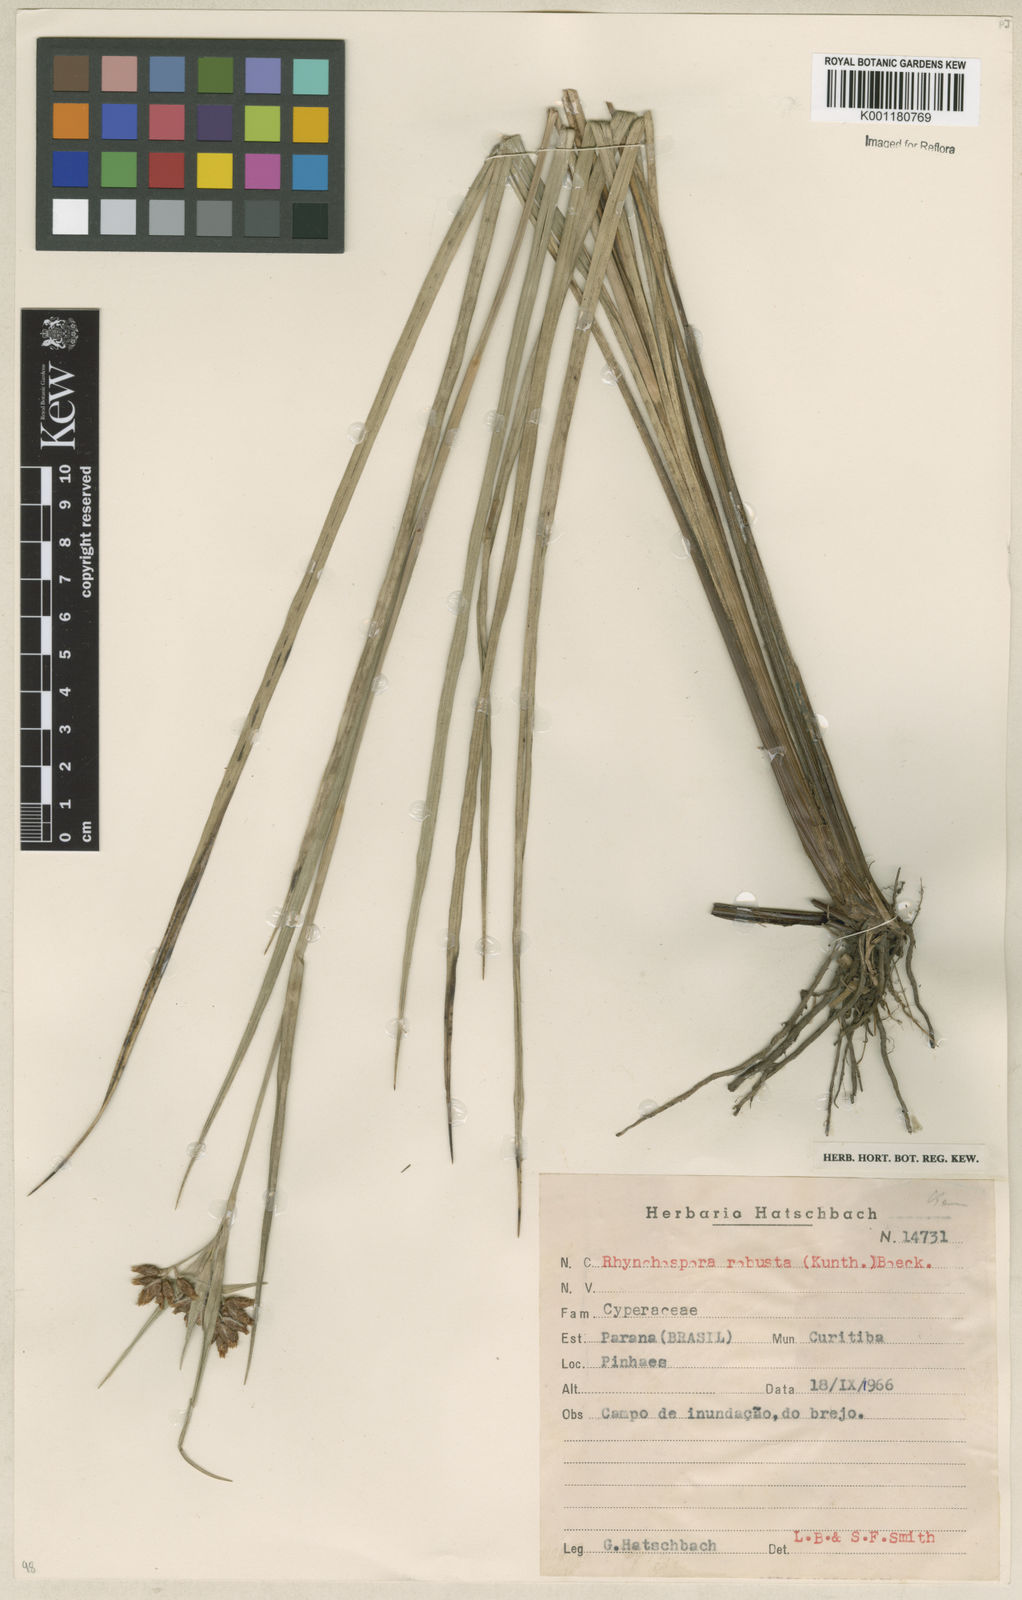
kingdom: Plantae
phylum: Tracheophyta
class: Liliopsida
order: Poales
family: Cyperaceae
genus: Rhynchospora
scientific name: Rhynchospora robusta
